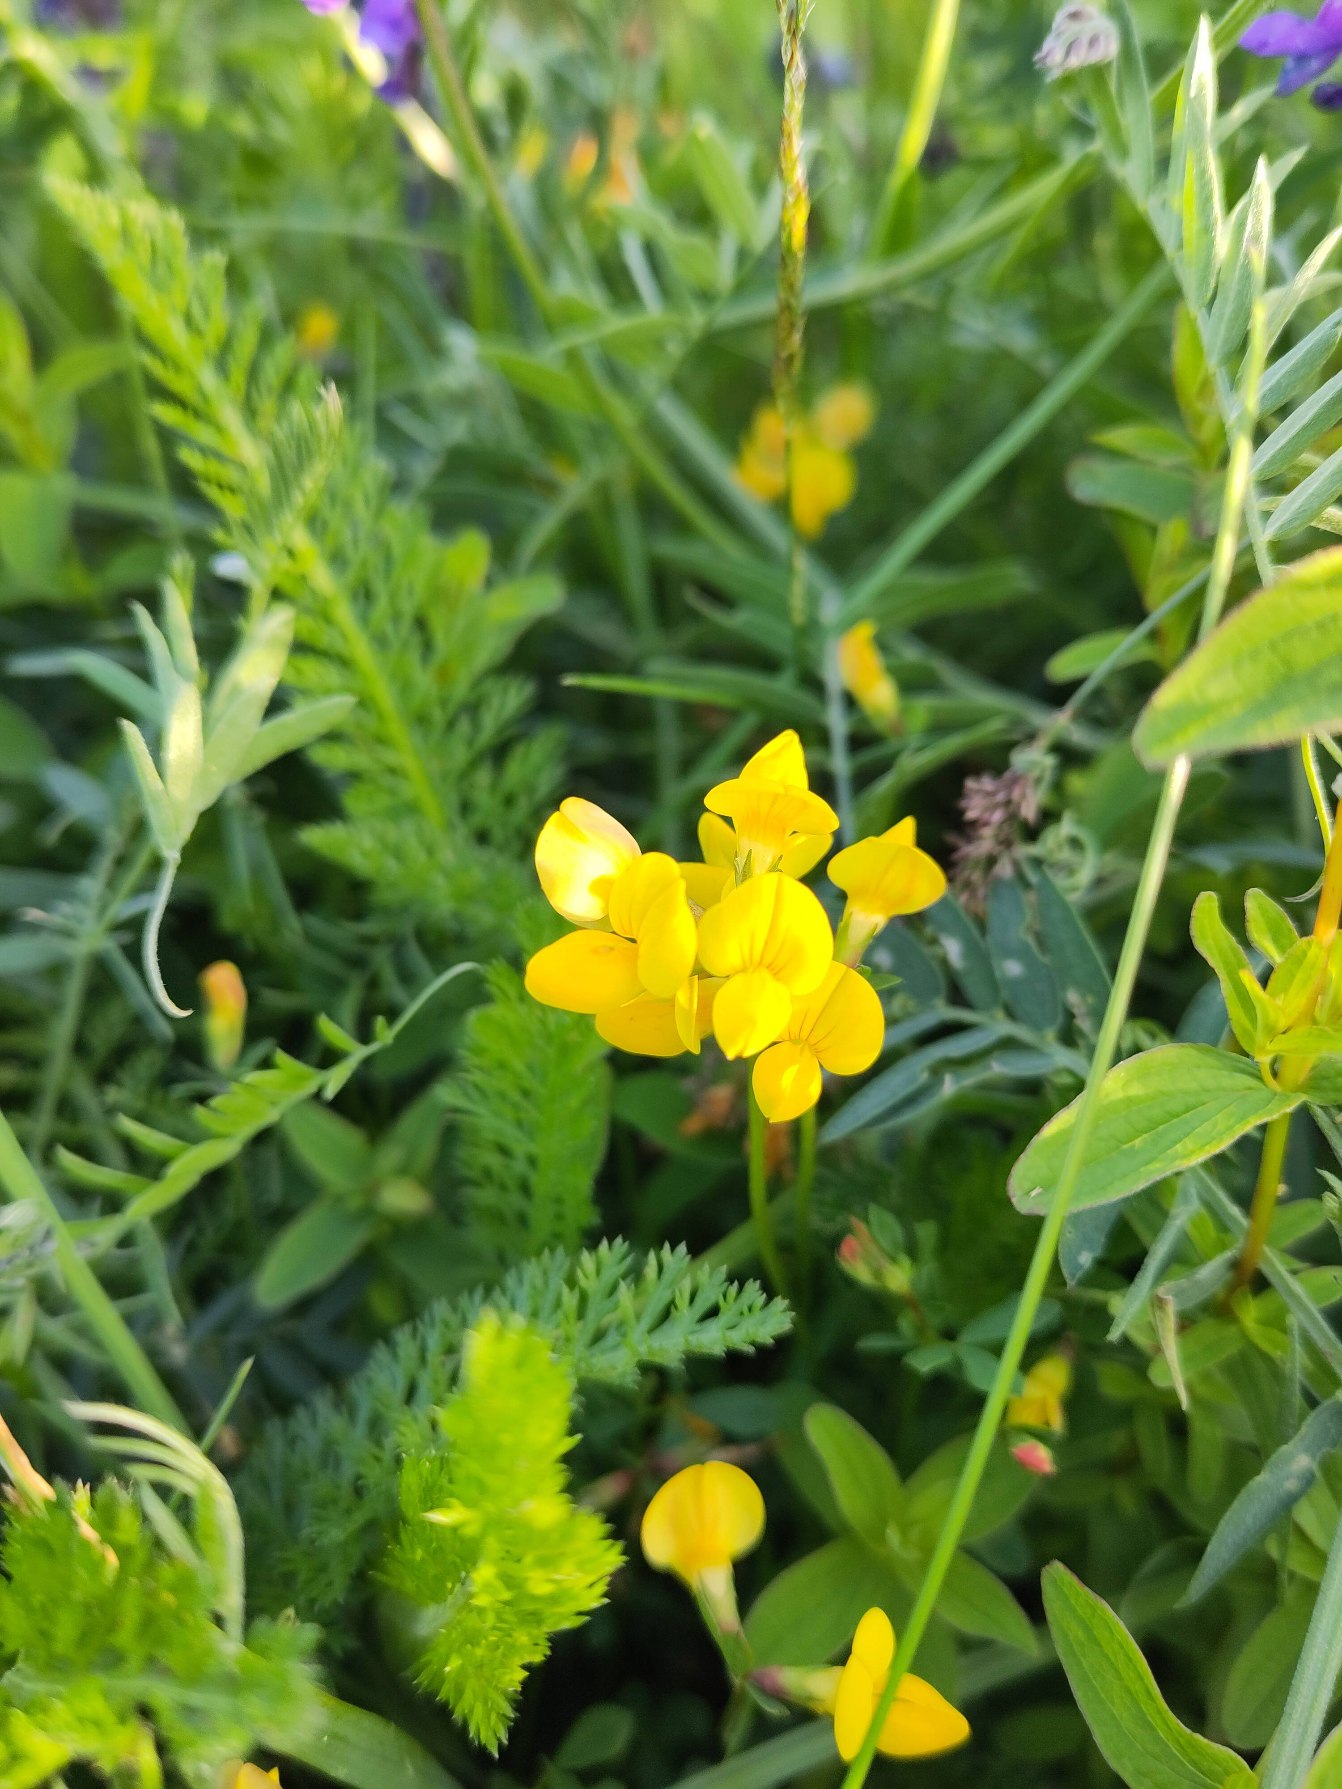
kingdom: Plantae
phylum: Tracheophyta
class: Magnoliopsida
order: Fabales
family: Fabaceae
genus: Lotus
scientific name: Lotus corniculatus
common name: Almindelig kællingetand (varietet)
